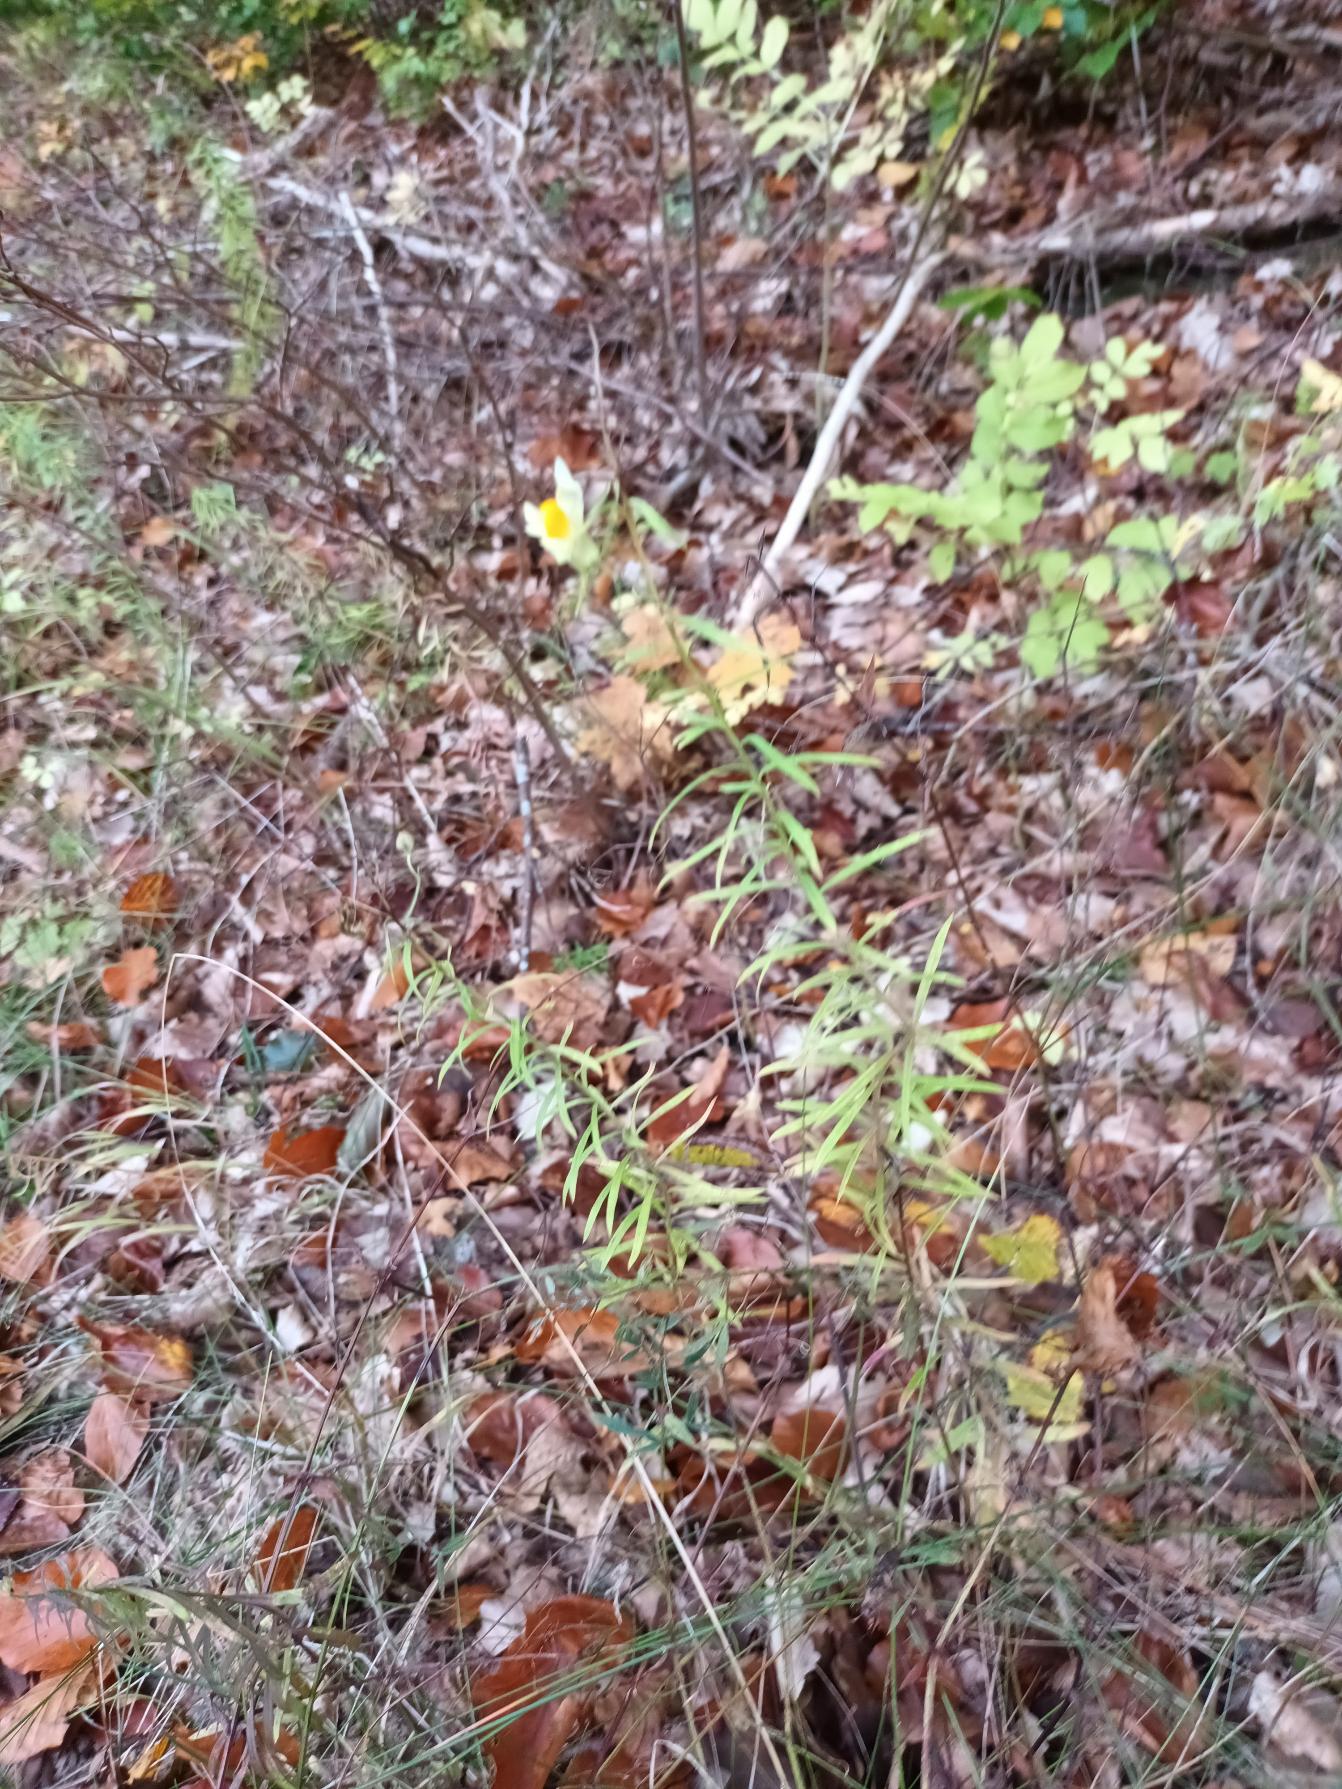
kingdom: Plantae
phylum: Tracheophyta
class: Magnoliopsida
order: Lamiales
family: Plantaginaceae
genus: Linaria
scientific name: Linaria vulgaris
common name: Almindelig torskemund
